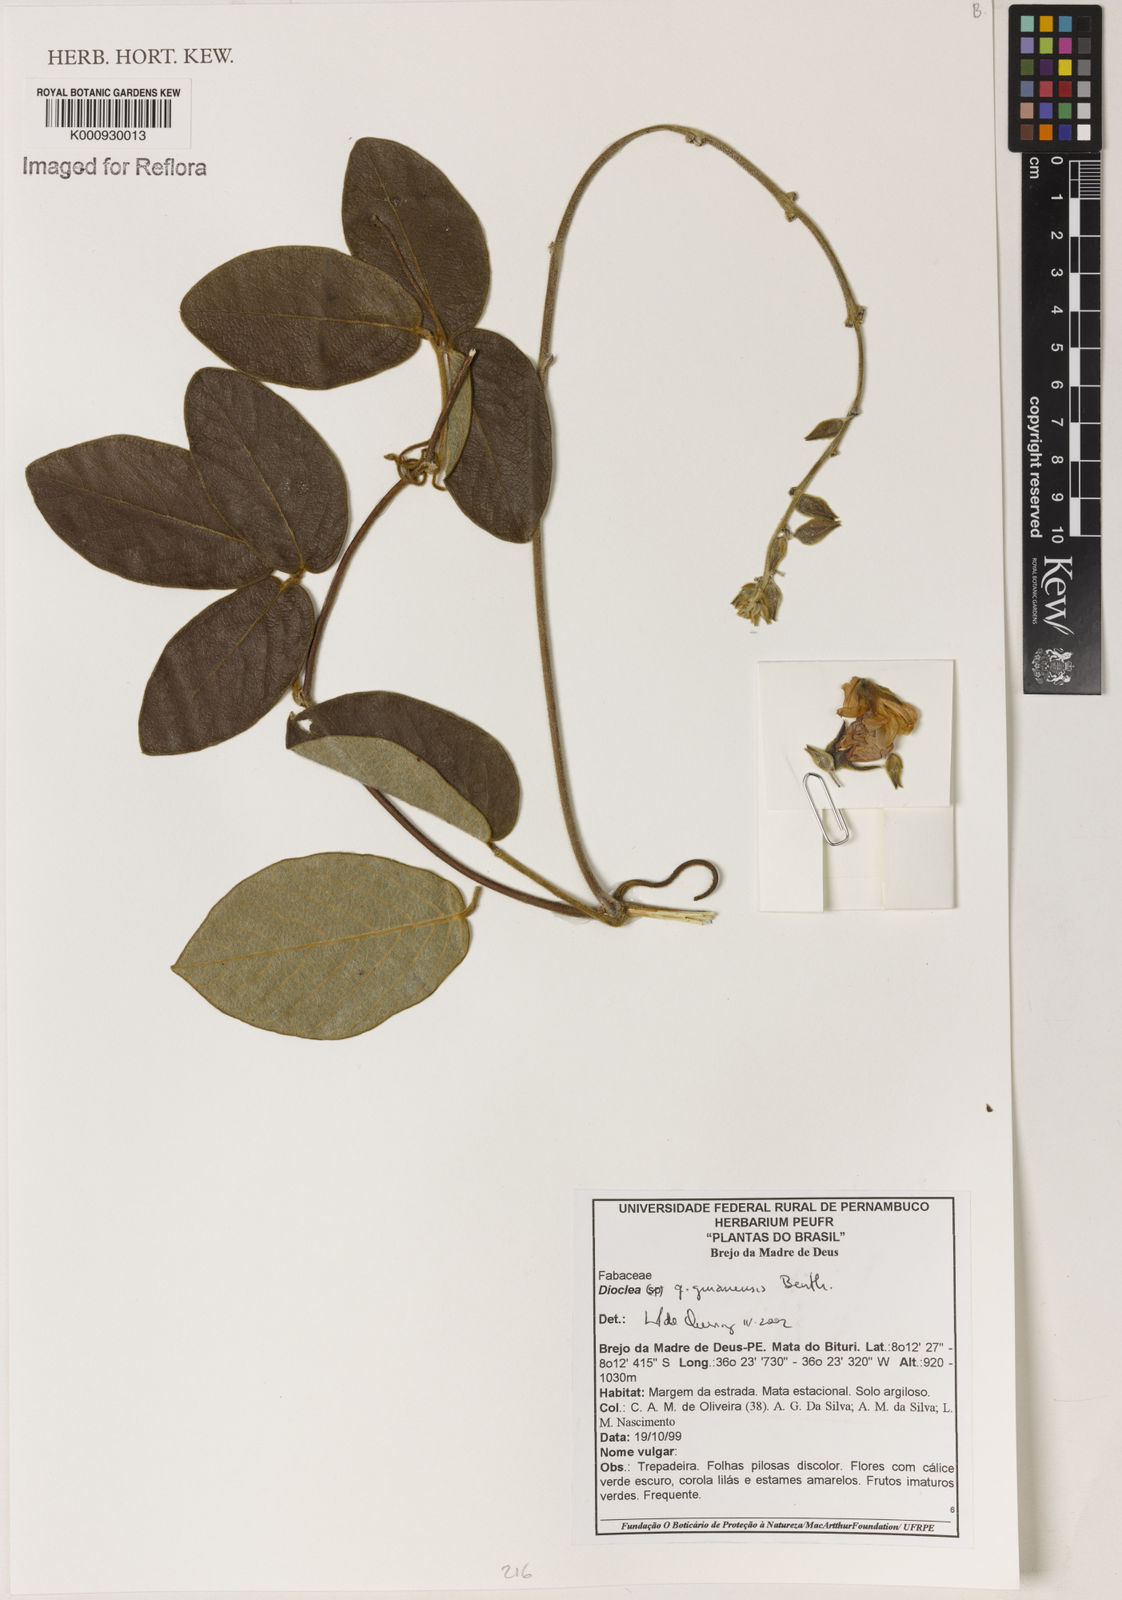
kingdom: Plantae
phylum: Tracheophyta
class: Magnoliopsida
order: Fabales
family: Fabaceae
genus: Dioclea
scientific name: Dioclea guianensis
